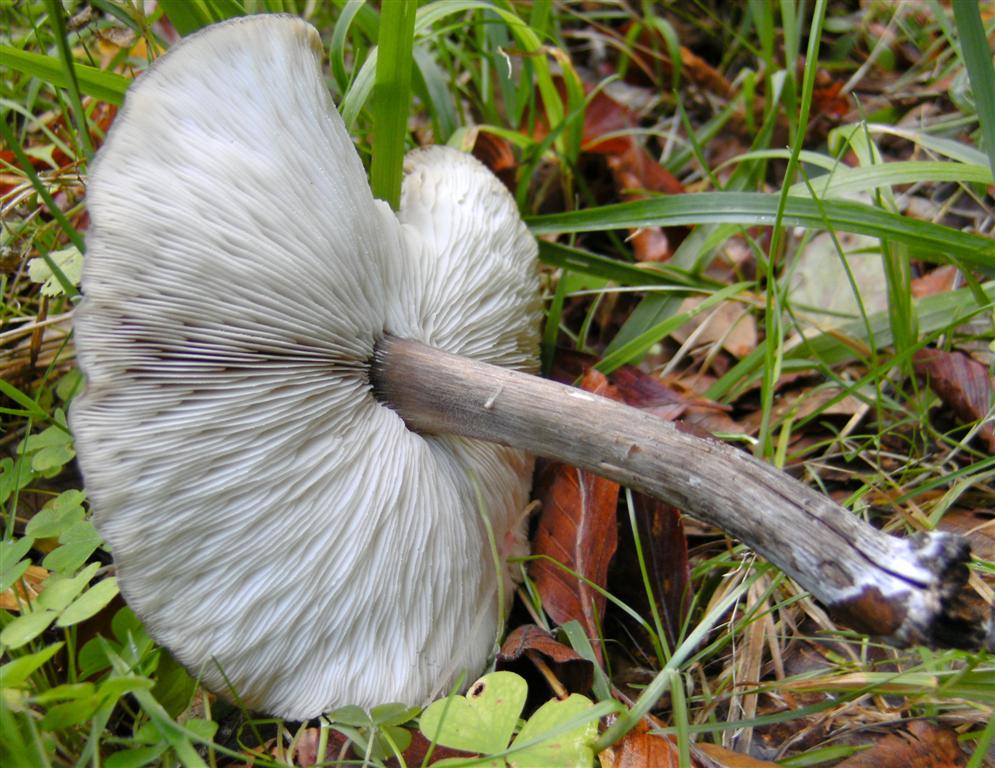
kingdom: Fungi
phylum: Basidiomycota
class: Agaricomycetes
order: Agaricales
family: Tricholomataceae
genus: Melanoleuca
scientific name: Melanoleuca polioleuca
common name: almindelig munkehat
